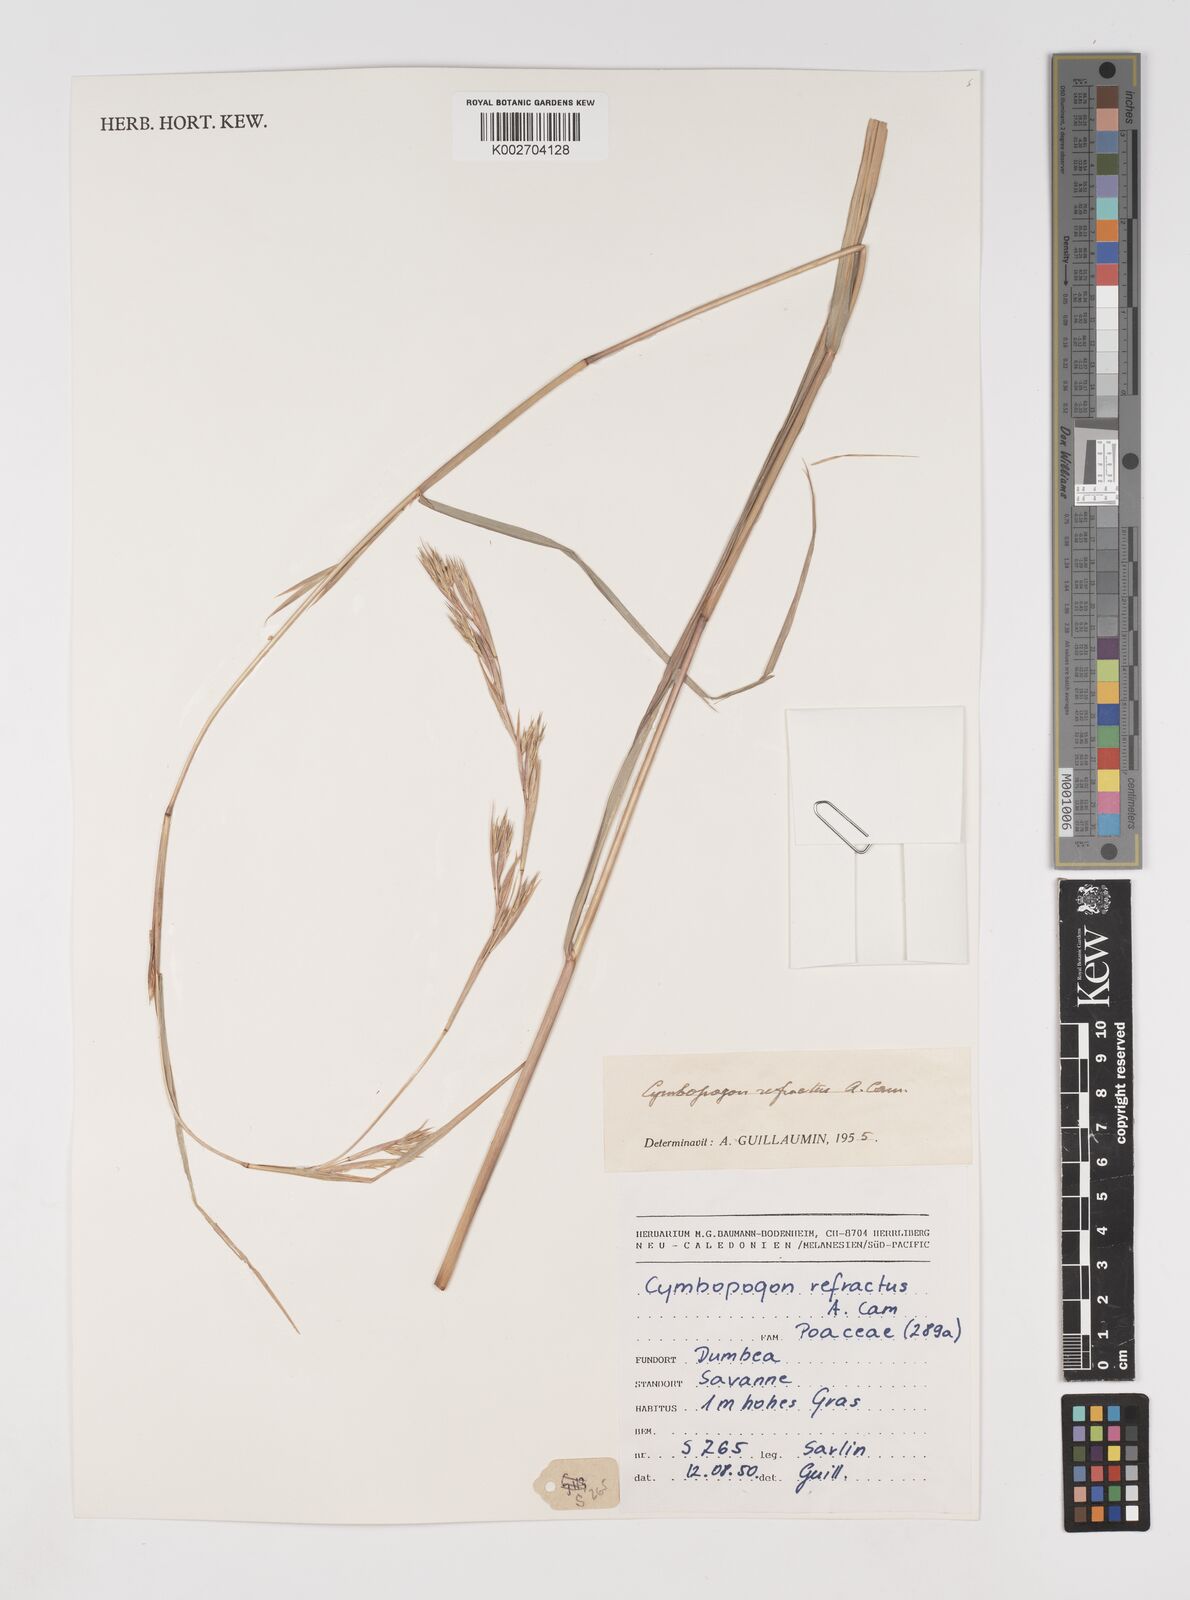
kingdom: Plantae
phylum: Tracheophyta
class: Liliopsida
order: Poales
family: Poaceae
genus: Cymbopogon
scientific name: Cymbopogon refractus
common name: Barbwire grass
